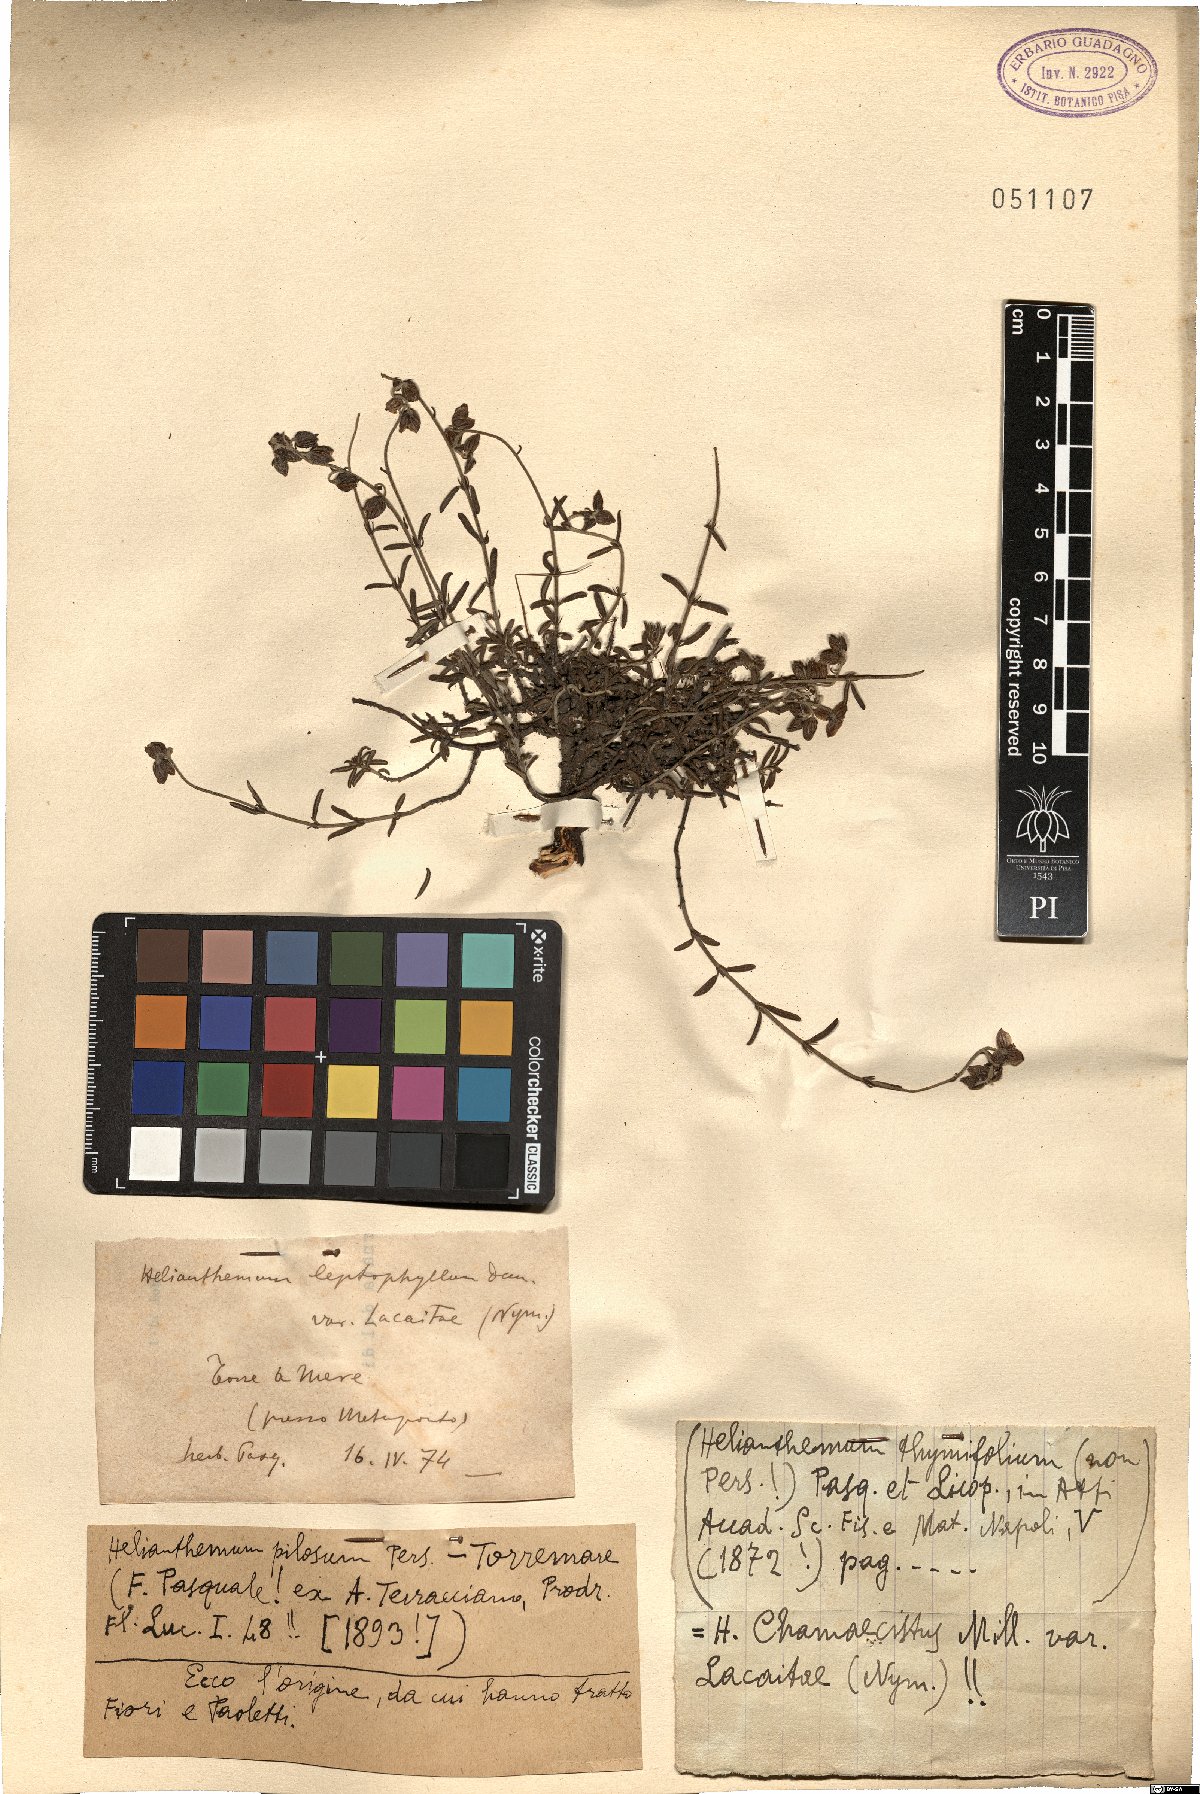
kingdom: Plantae
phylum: Tracheophyta
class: Magnoliopsida
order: Malvales
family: Cistaceae
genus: Fumana
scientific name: Fumana laevis
